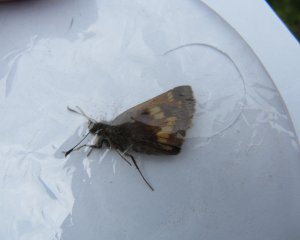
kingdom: Animalia
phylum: Arthropoda
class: Insecta
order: Lepidoptera
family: Hesperiidae
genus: Polites
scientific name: Polites
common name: Long Dash Skipper
